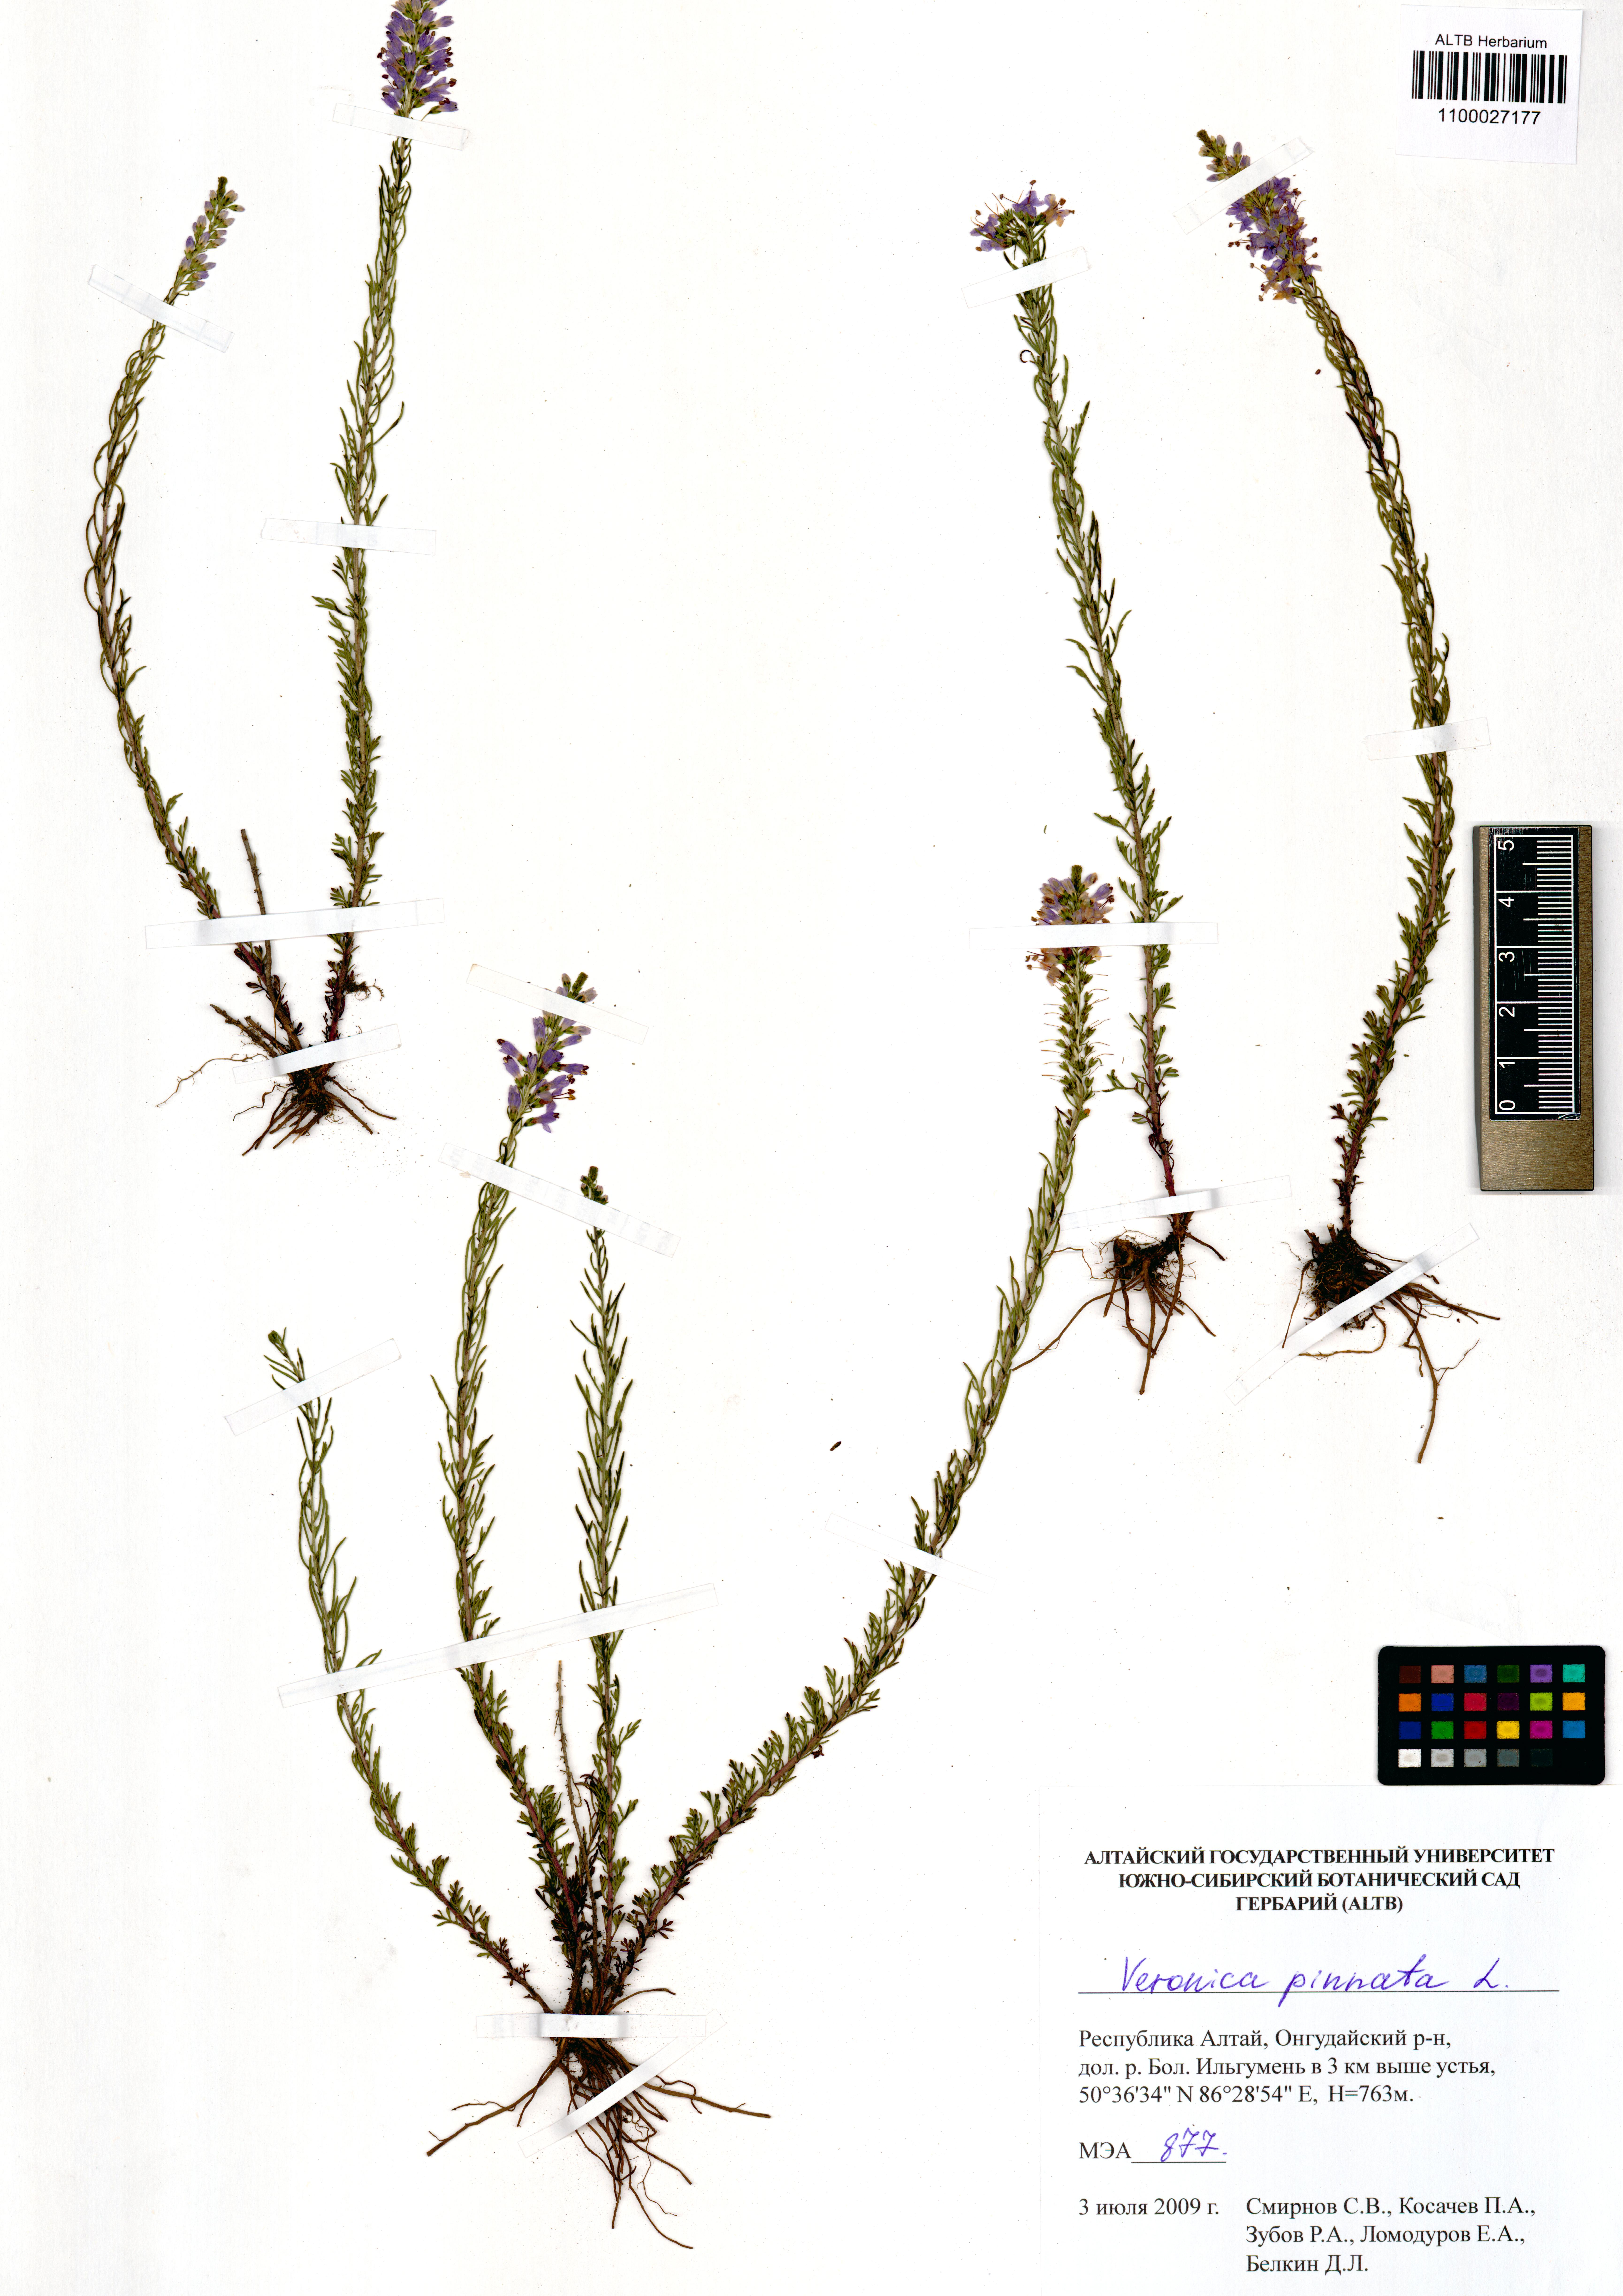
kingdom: Plantae
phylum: Tracheophyta
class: Magnoliopsida
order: Lamiales
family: Plantaginaceae
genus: Veronica
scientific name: Veronica pinnata
